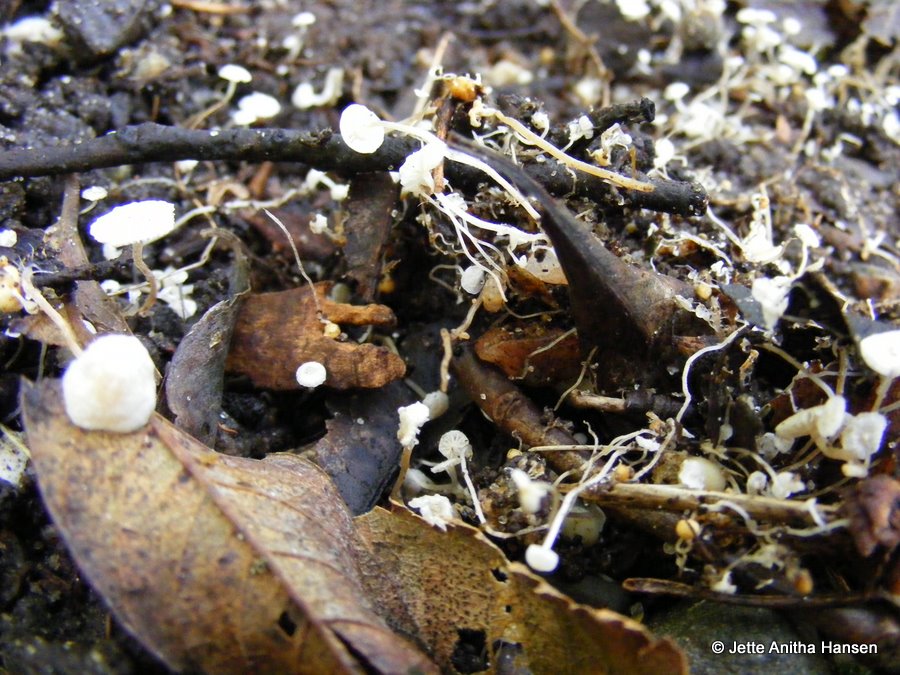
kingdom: Fungi
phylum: Basidiomycota
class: Agaricomycetes
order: Agaricales
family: Tricholomataceae
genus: Collybia
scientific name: Collybia cookei
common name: gulknoldet lighat
